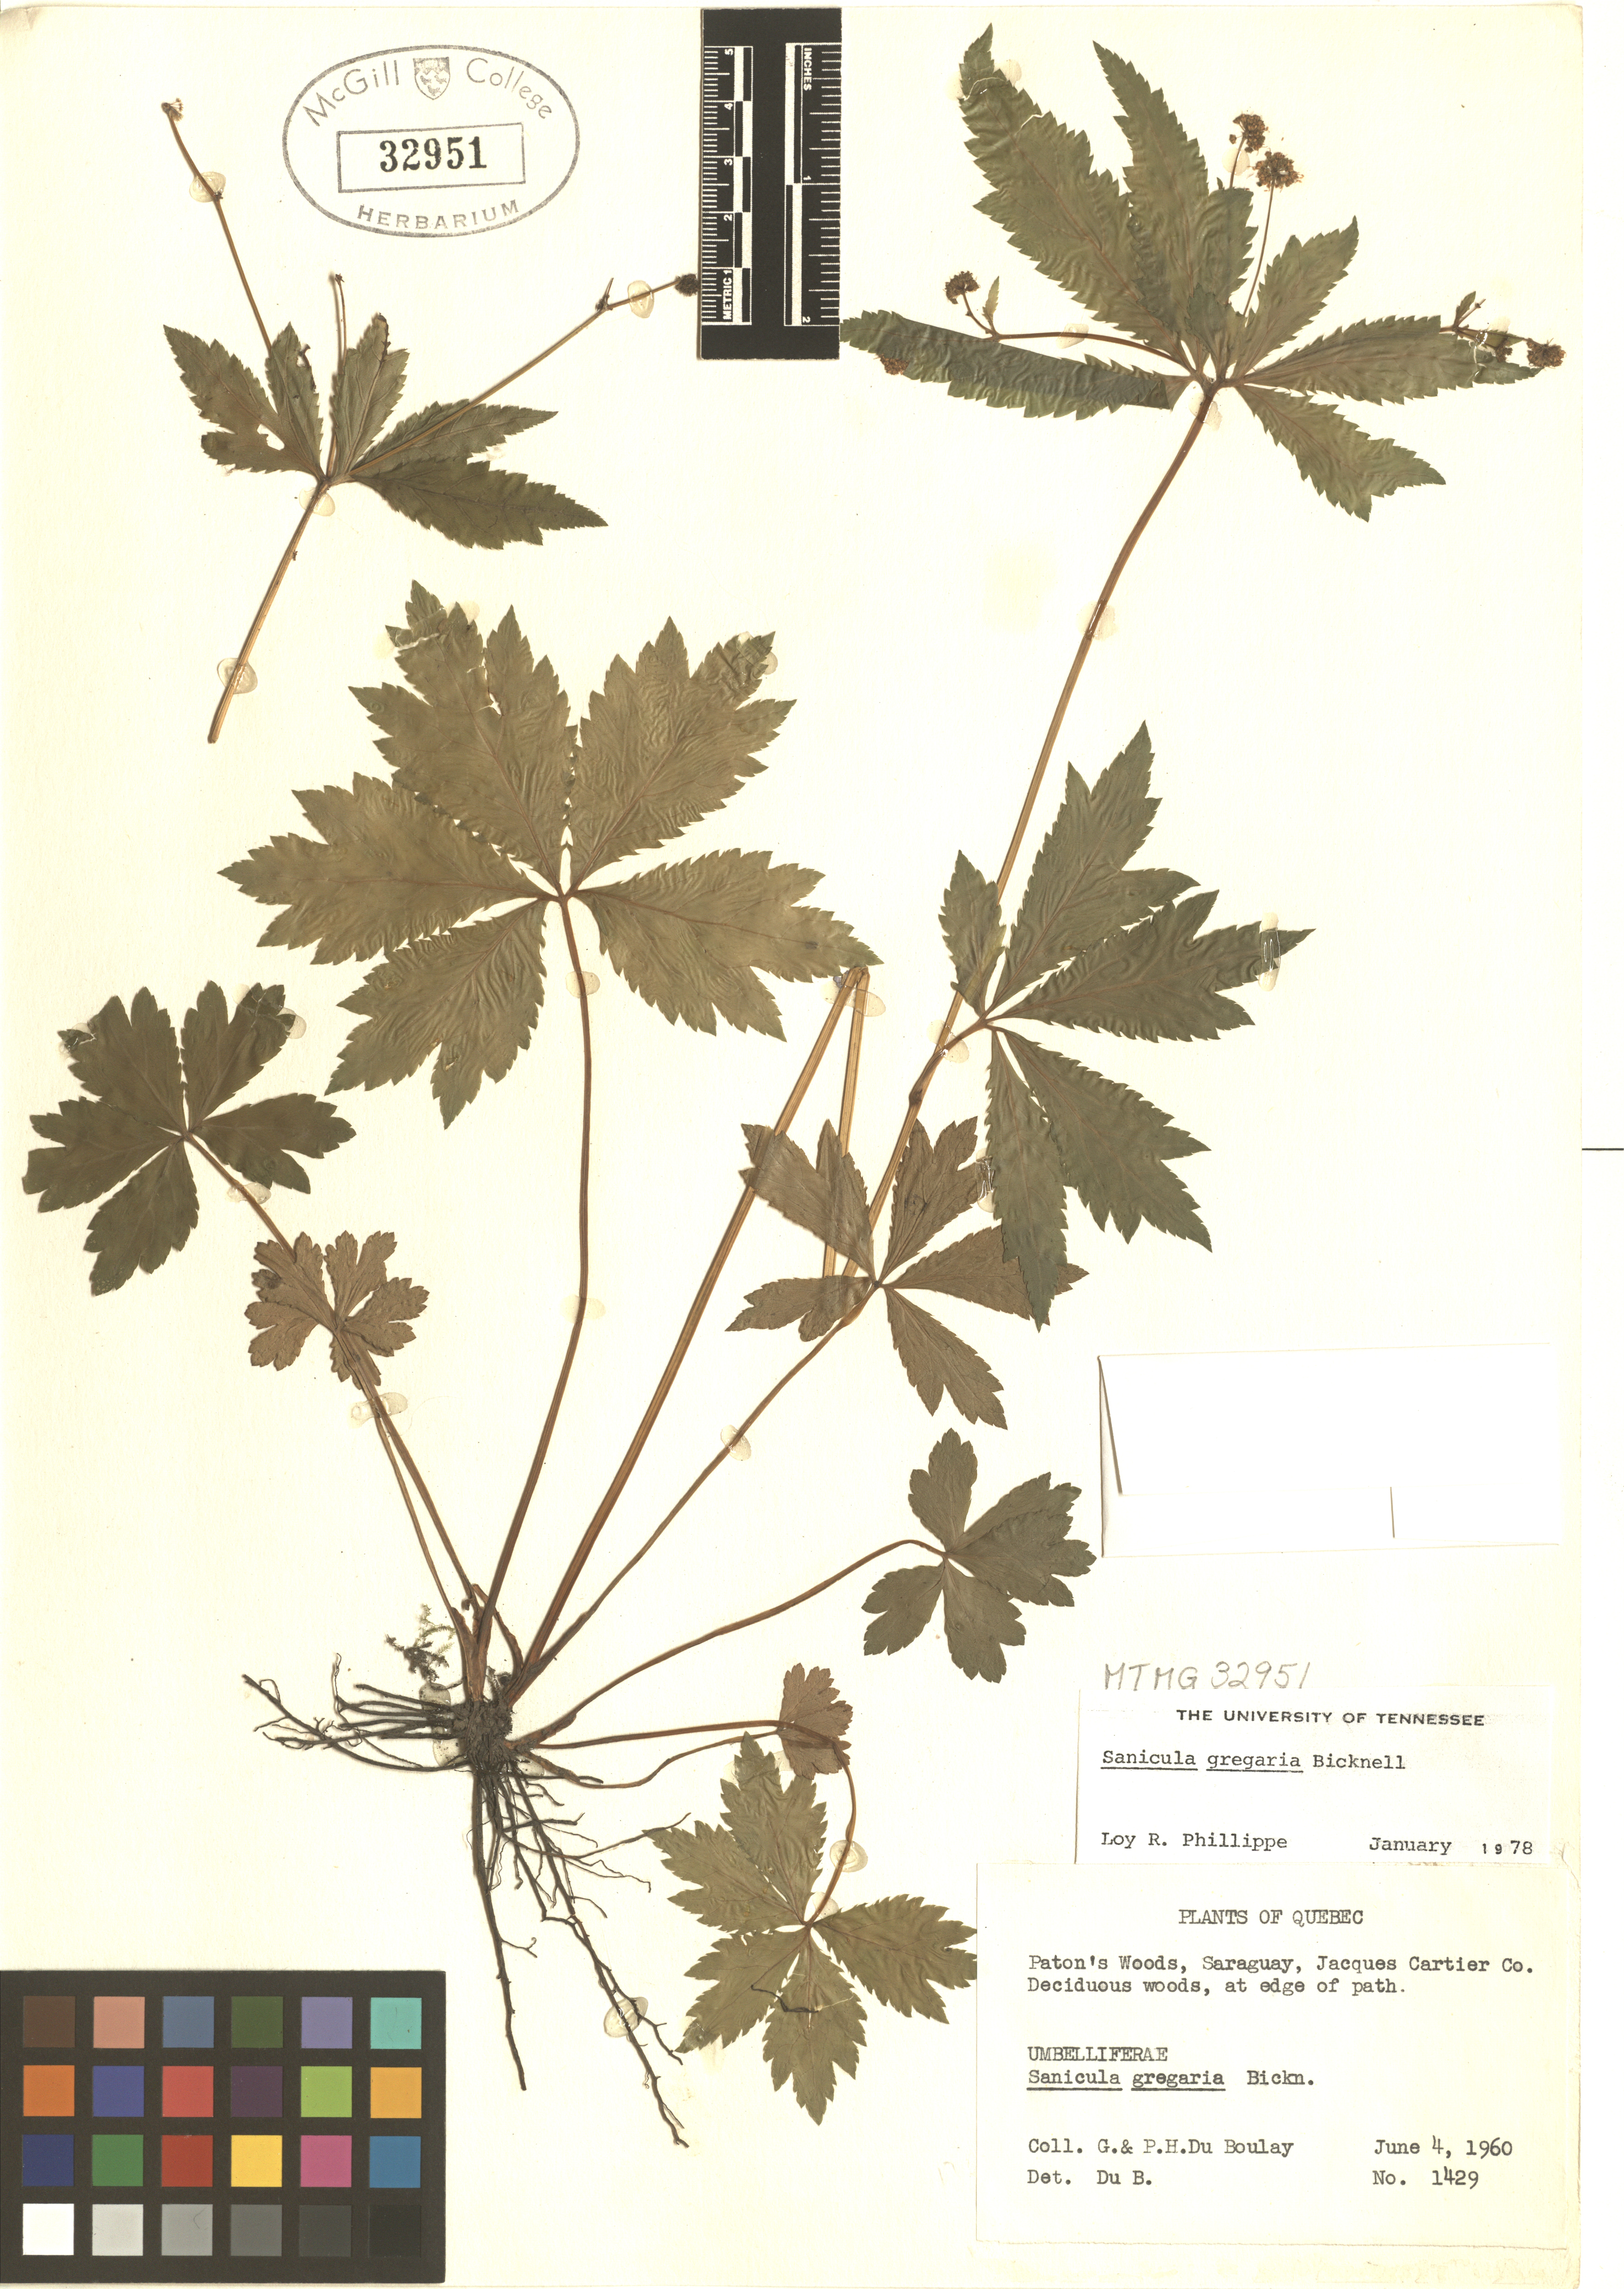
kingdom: Plantae
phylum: Tracheophyta
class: Magnoliopsida
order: Apiales
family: Apiaceae
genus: Sanicula
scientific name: Sanicula odorata
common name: Cluster sanicle
